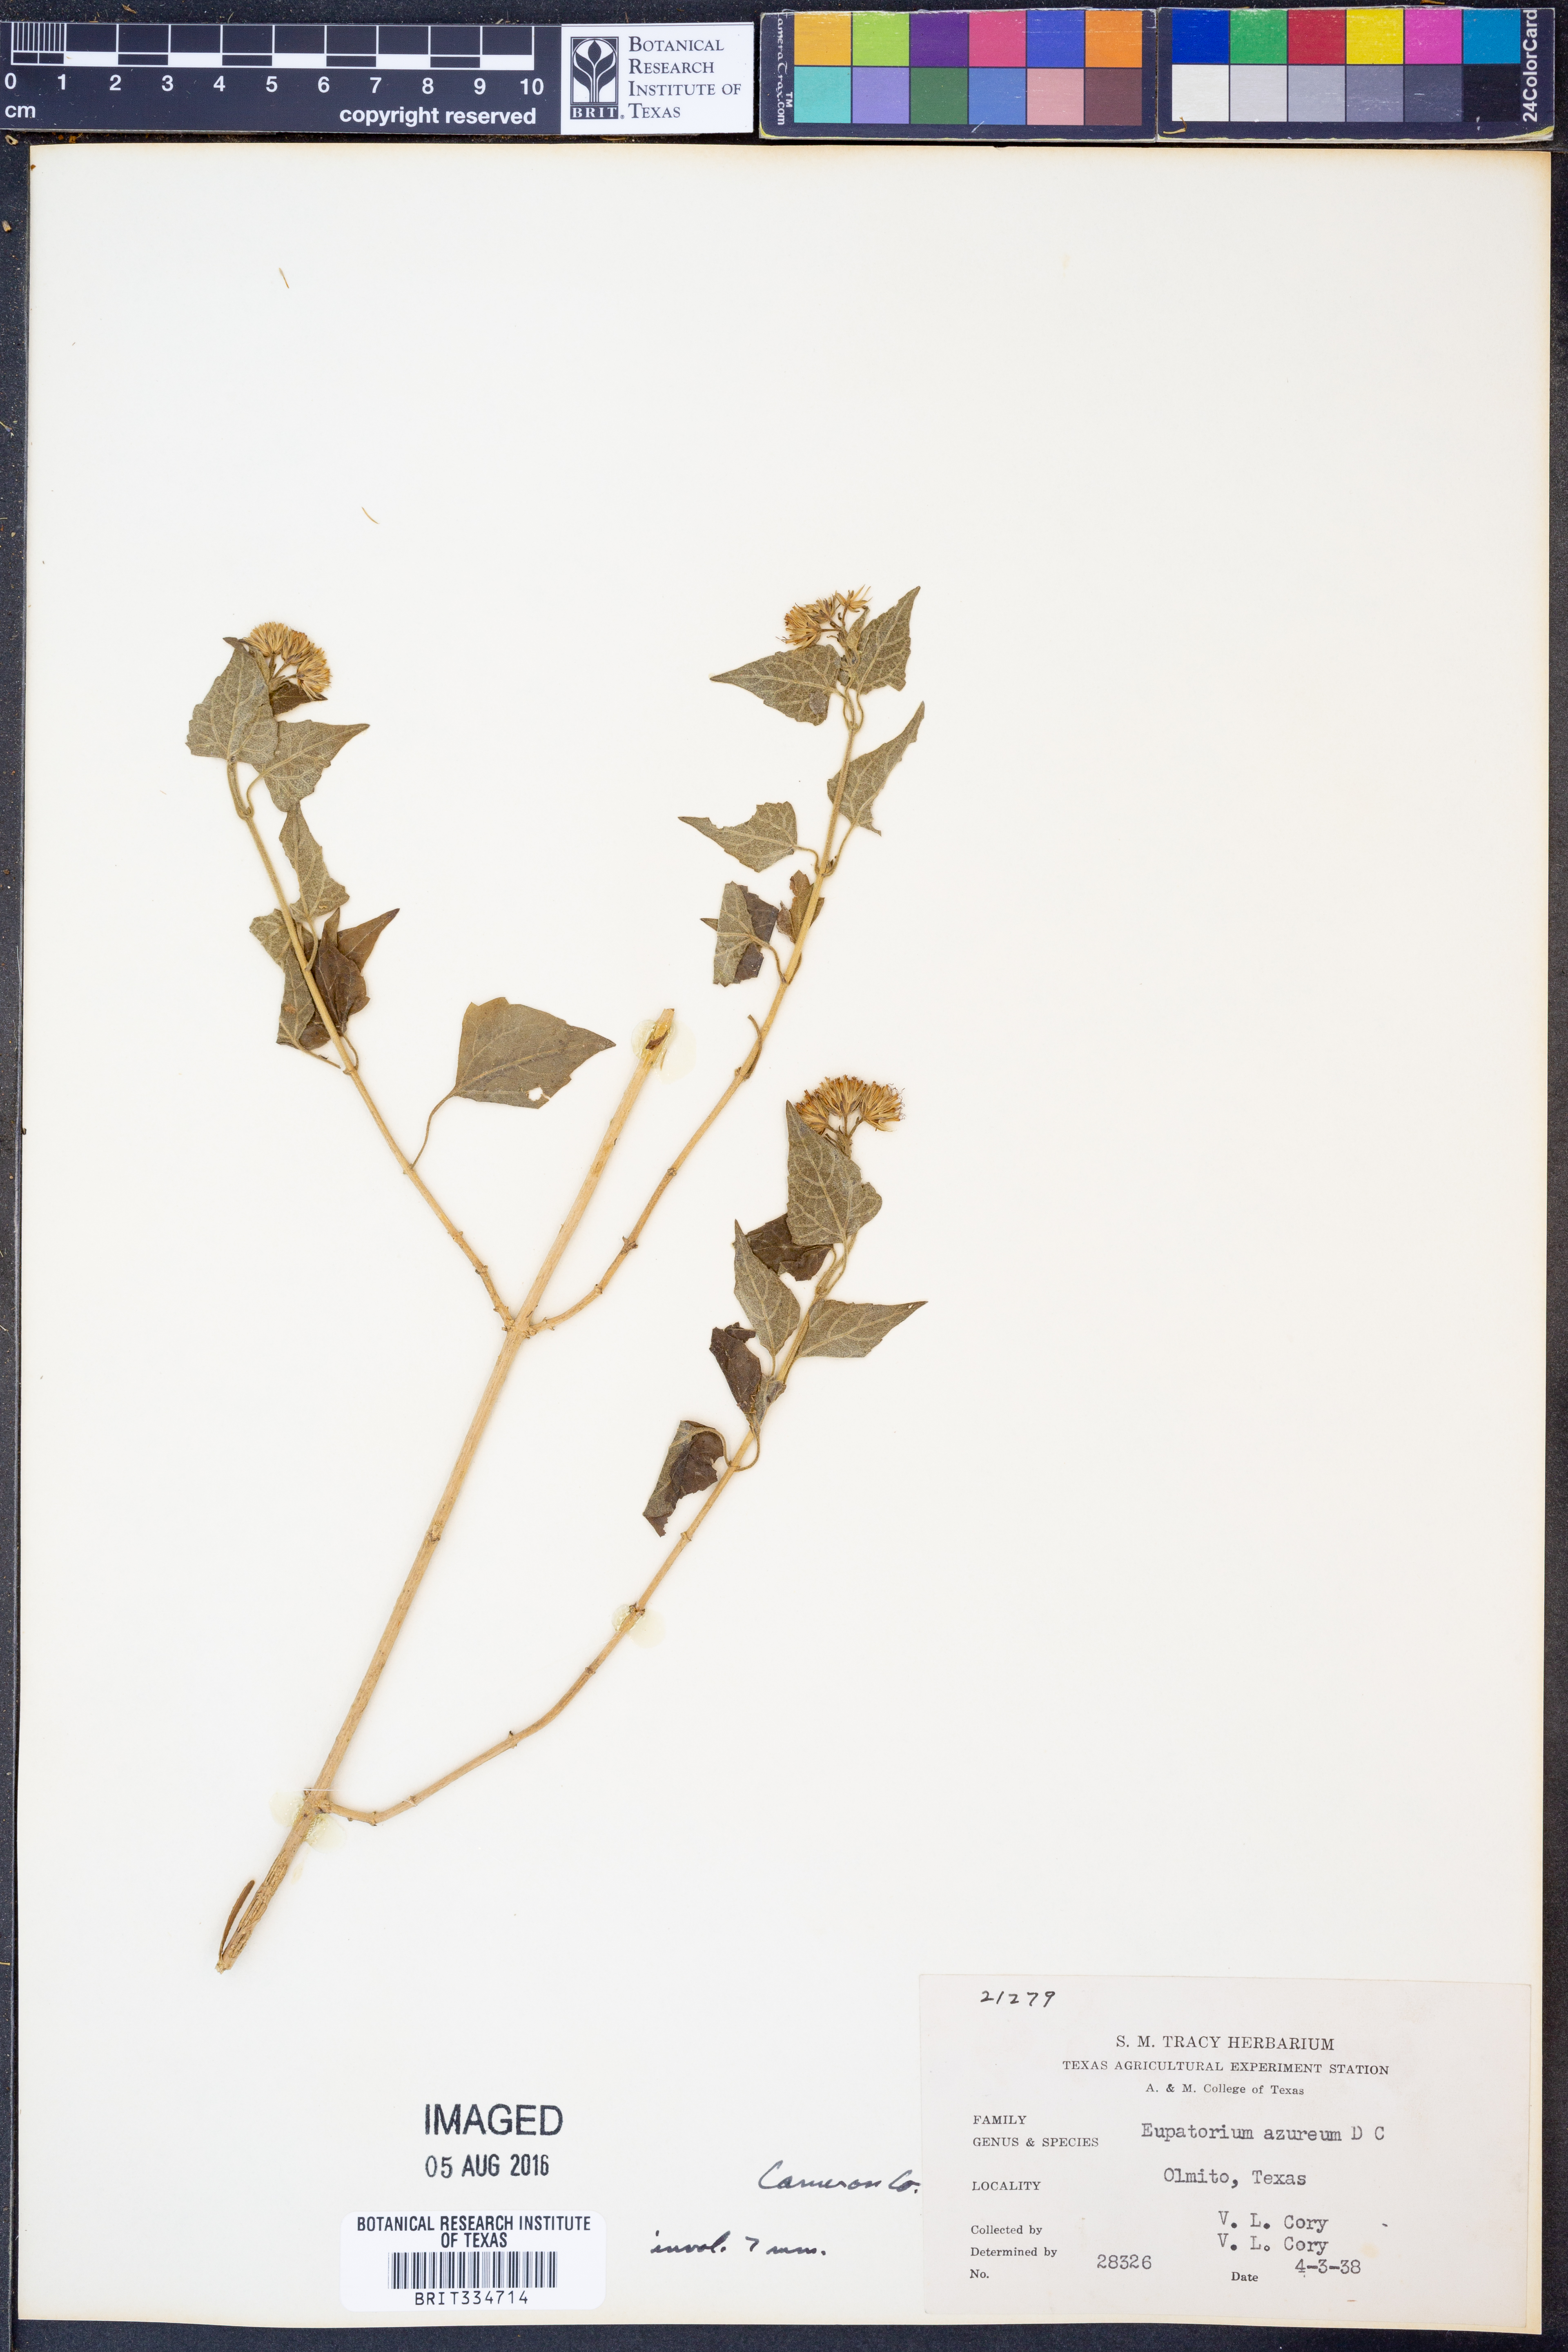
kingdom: Plantae
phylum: Tracheophyta
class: Magnoliopsida
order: Asterales
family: Asteraceae
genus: Tamaulipa
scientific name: Tamaulipa azurea
